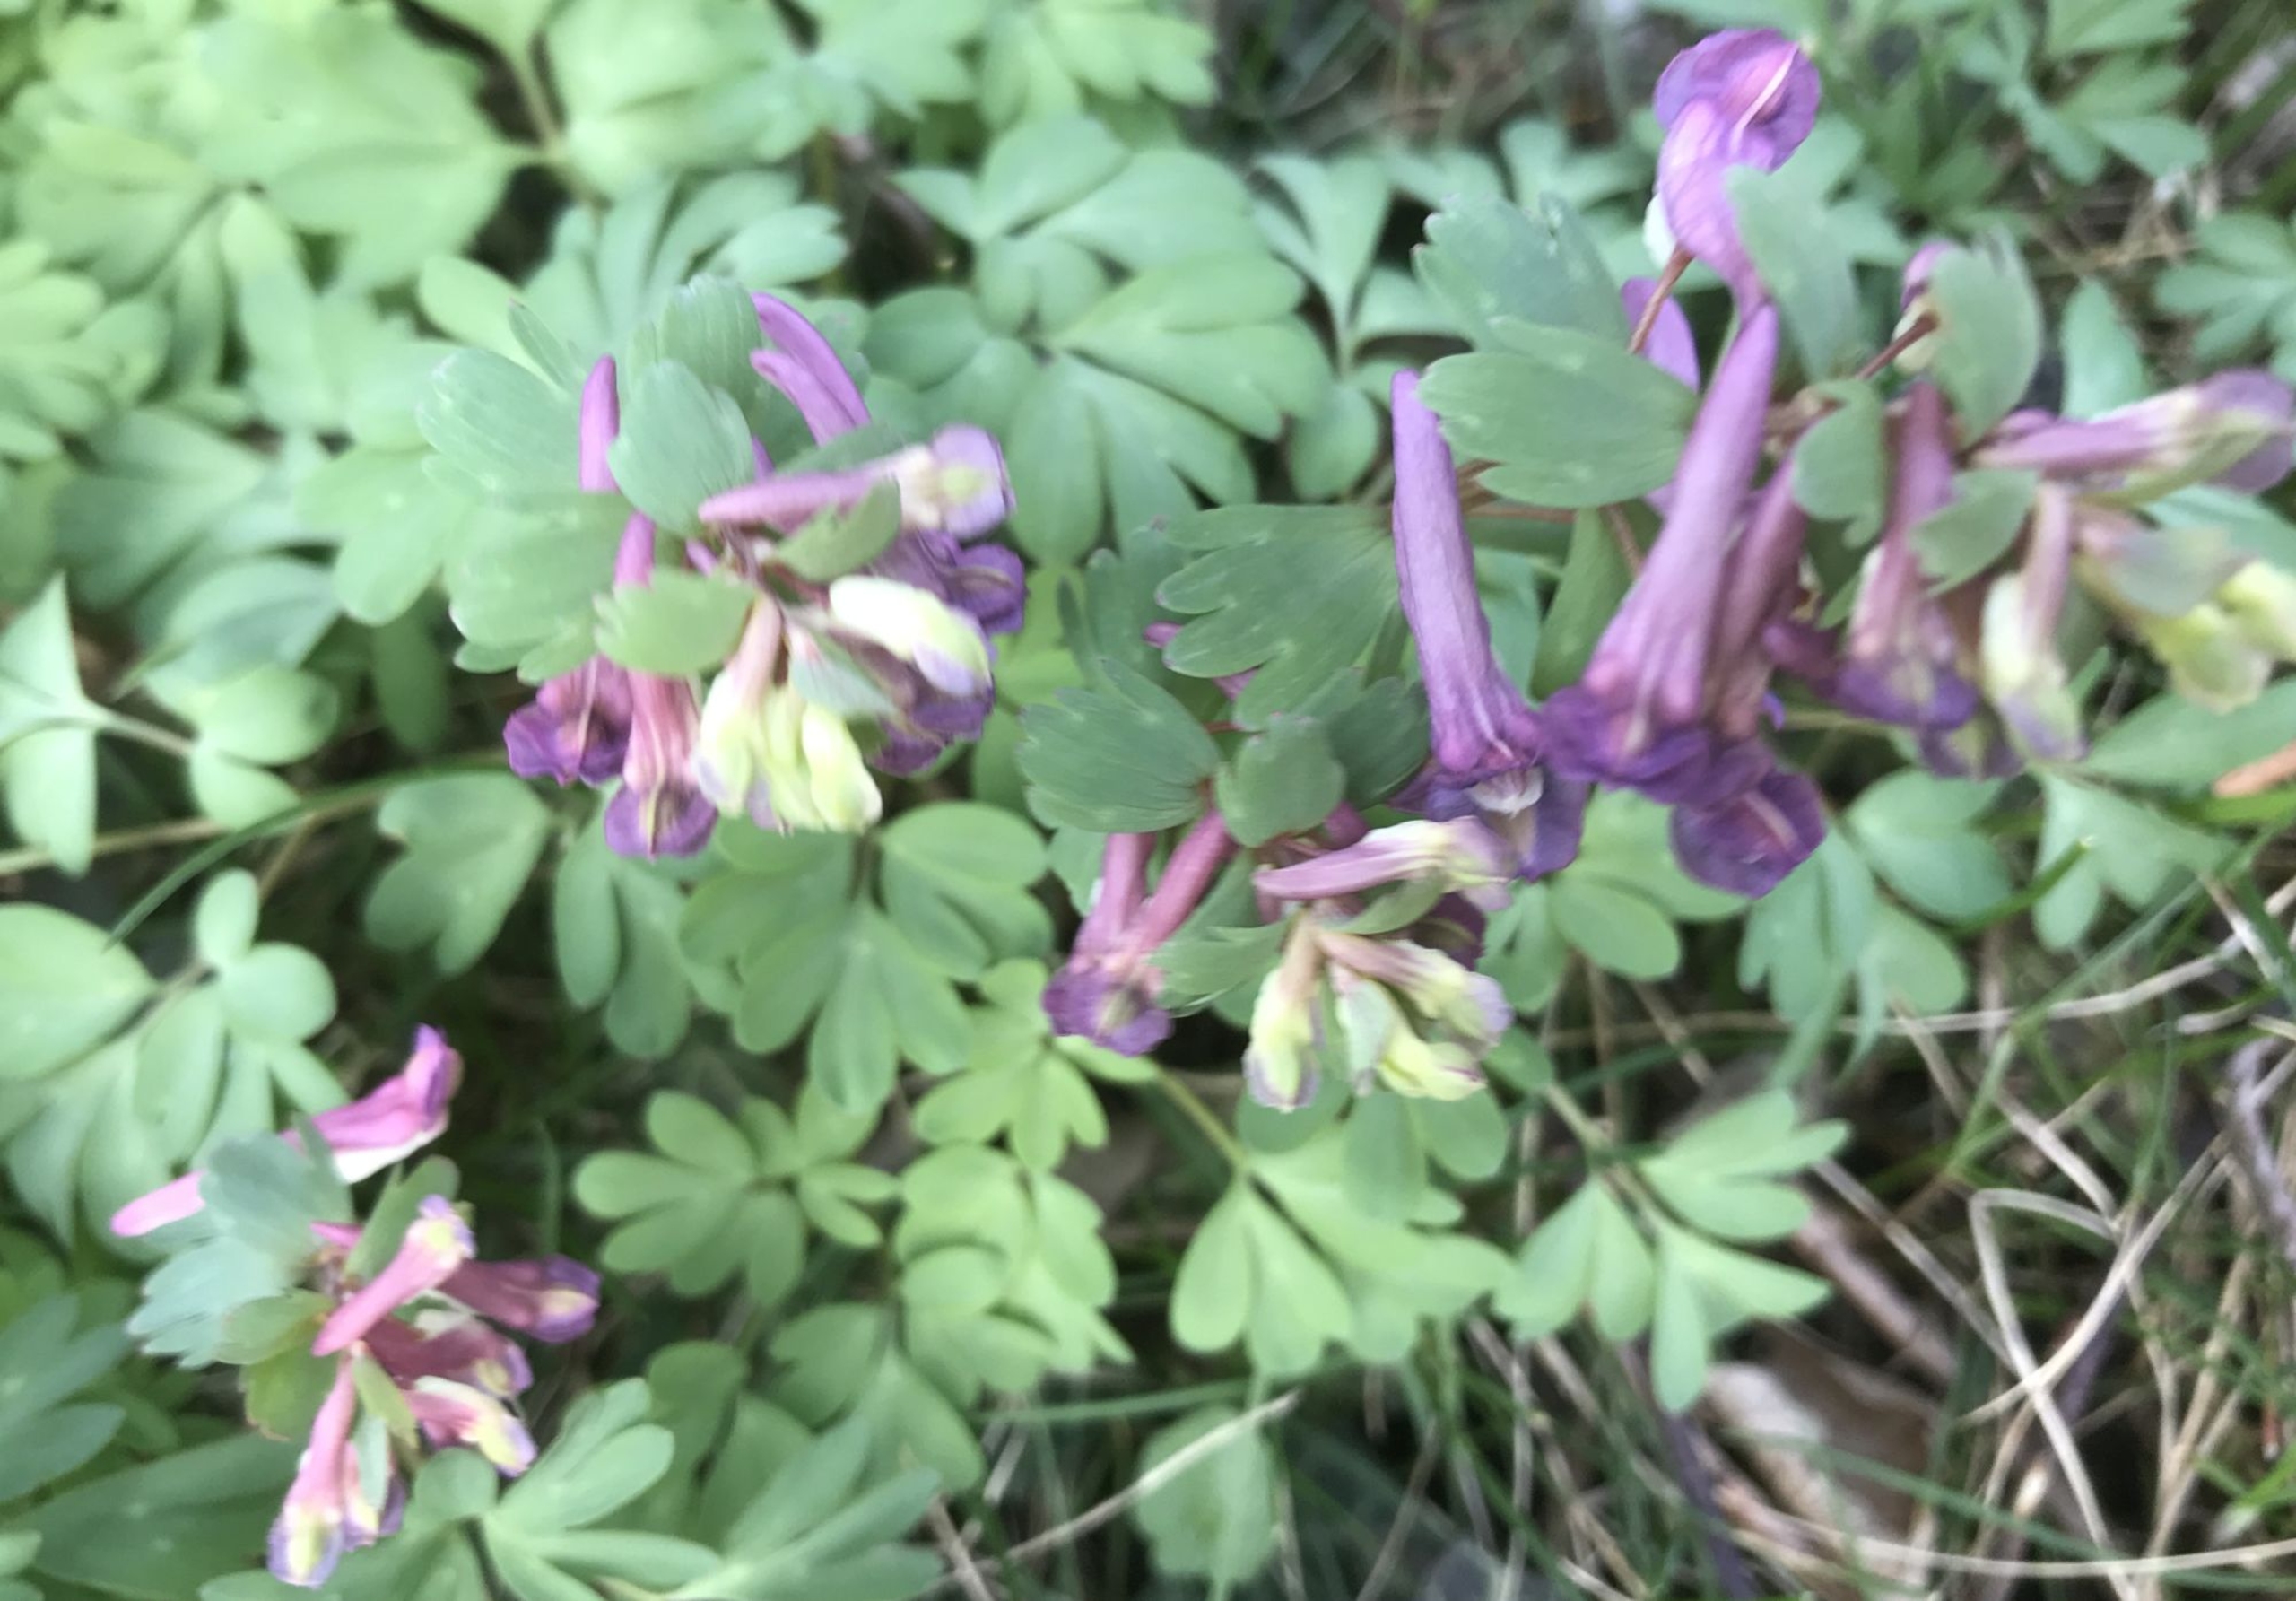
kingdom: Plantae
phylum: Tracheophyta
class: Magnoliopsida
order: Ranunculales
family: Papaveraceae
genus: Corydalis
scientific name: Corydalis solida
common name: Langstilket lærkespore
